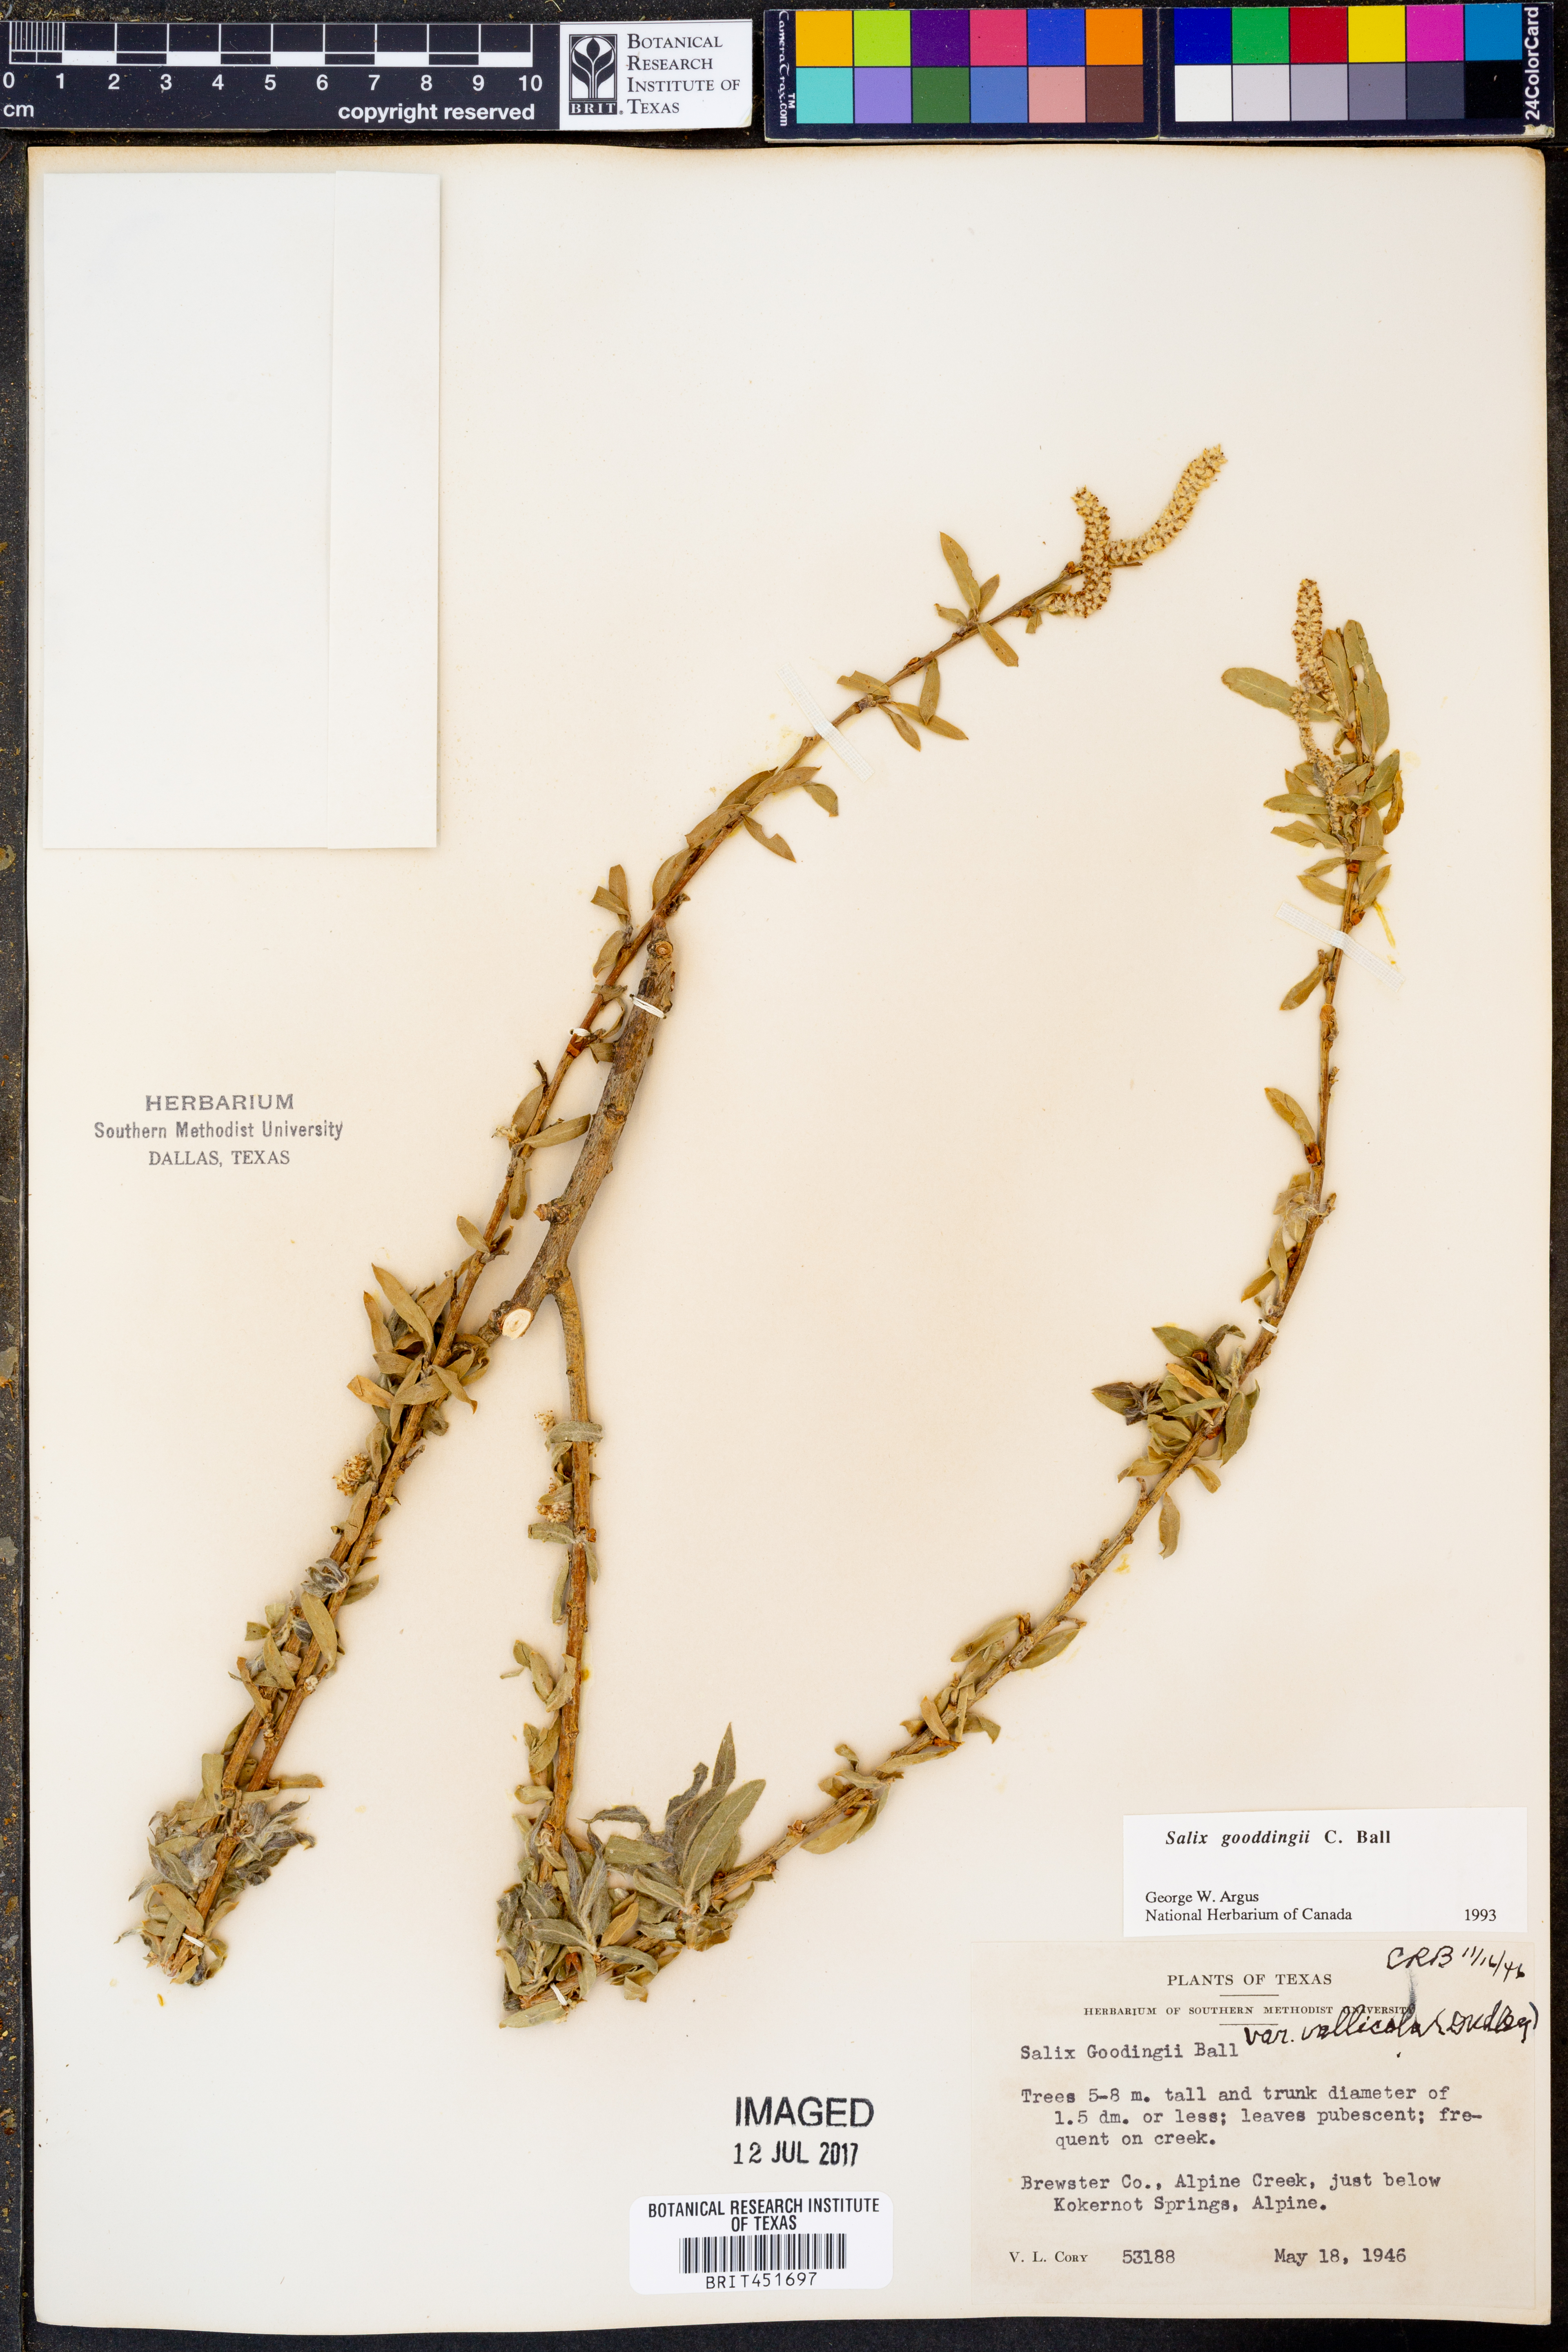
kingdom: Plantae
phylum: Tracheophyta
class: Magnoliopsida
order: Malpighiales
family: Salicaceae
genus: Salix
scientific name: Salix gooddingii
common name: Goodding's willow
